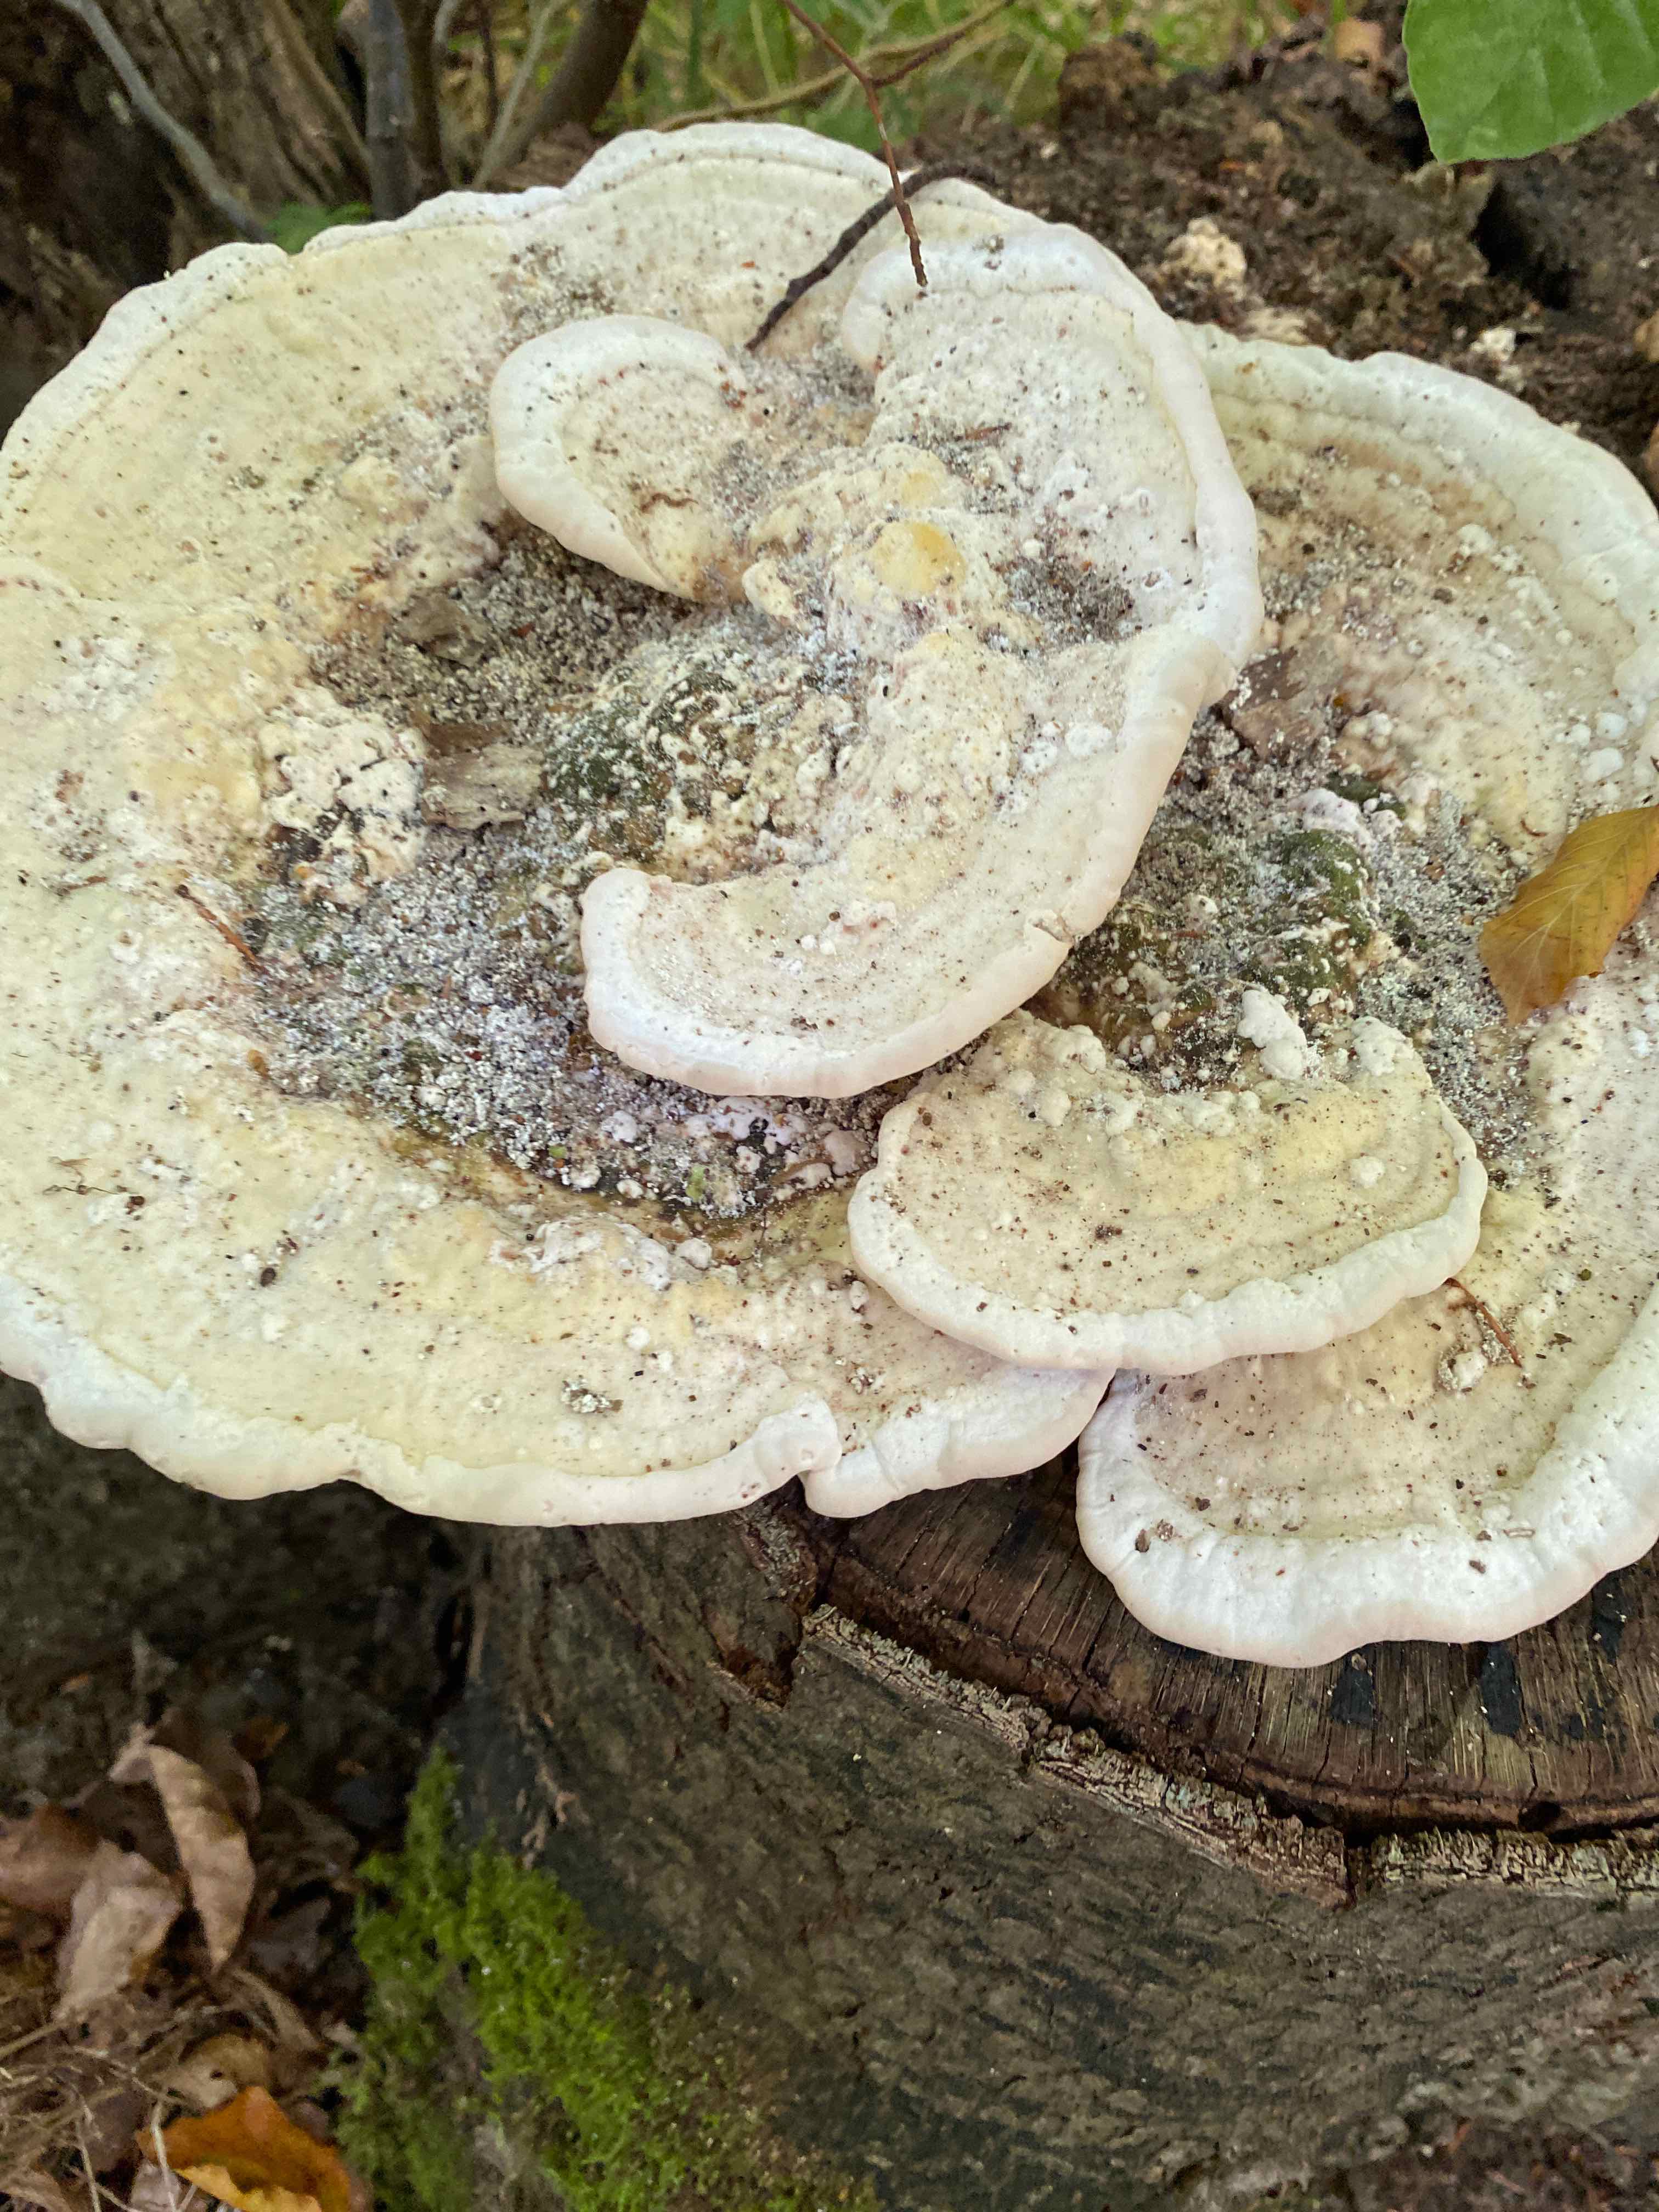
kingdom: Fungi
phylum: Basidiomycota
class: Agaricomycetes
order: Polyporales
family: Polyporaceae
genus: Trametes
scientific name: Trametes gibbosa
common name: puklet læderporesvamp
